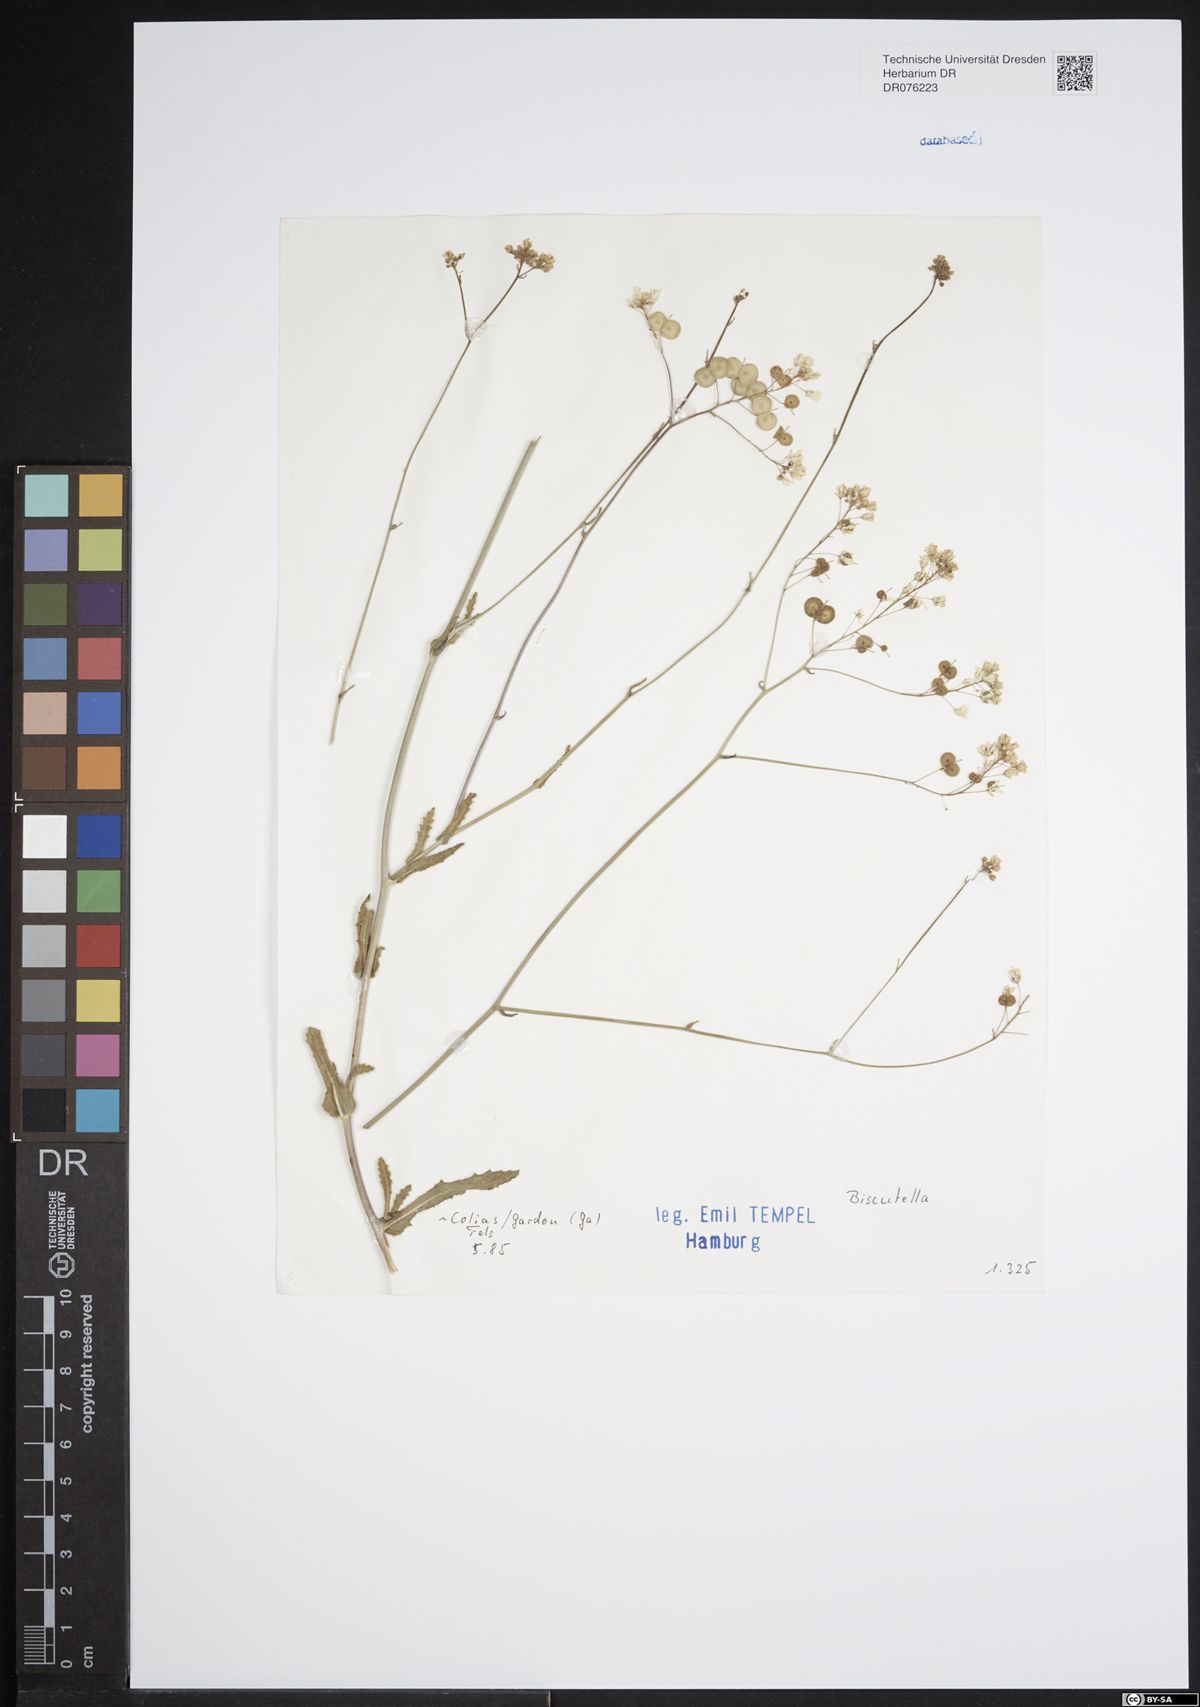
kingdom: Plantae
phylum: Tracheophyta
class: Magnoliopsida
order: Brassicales
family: Brassicaceae
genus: Biscutella
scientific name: Biscutella
